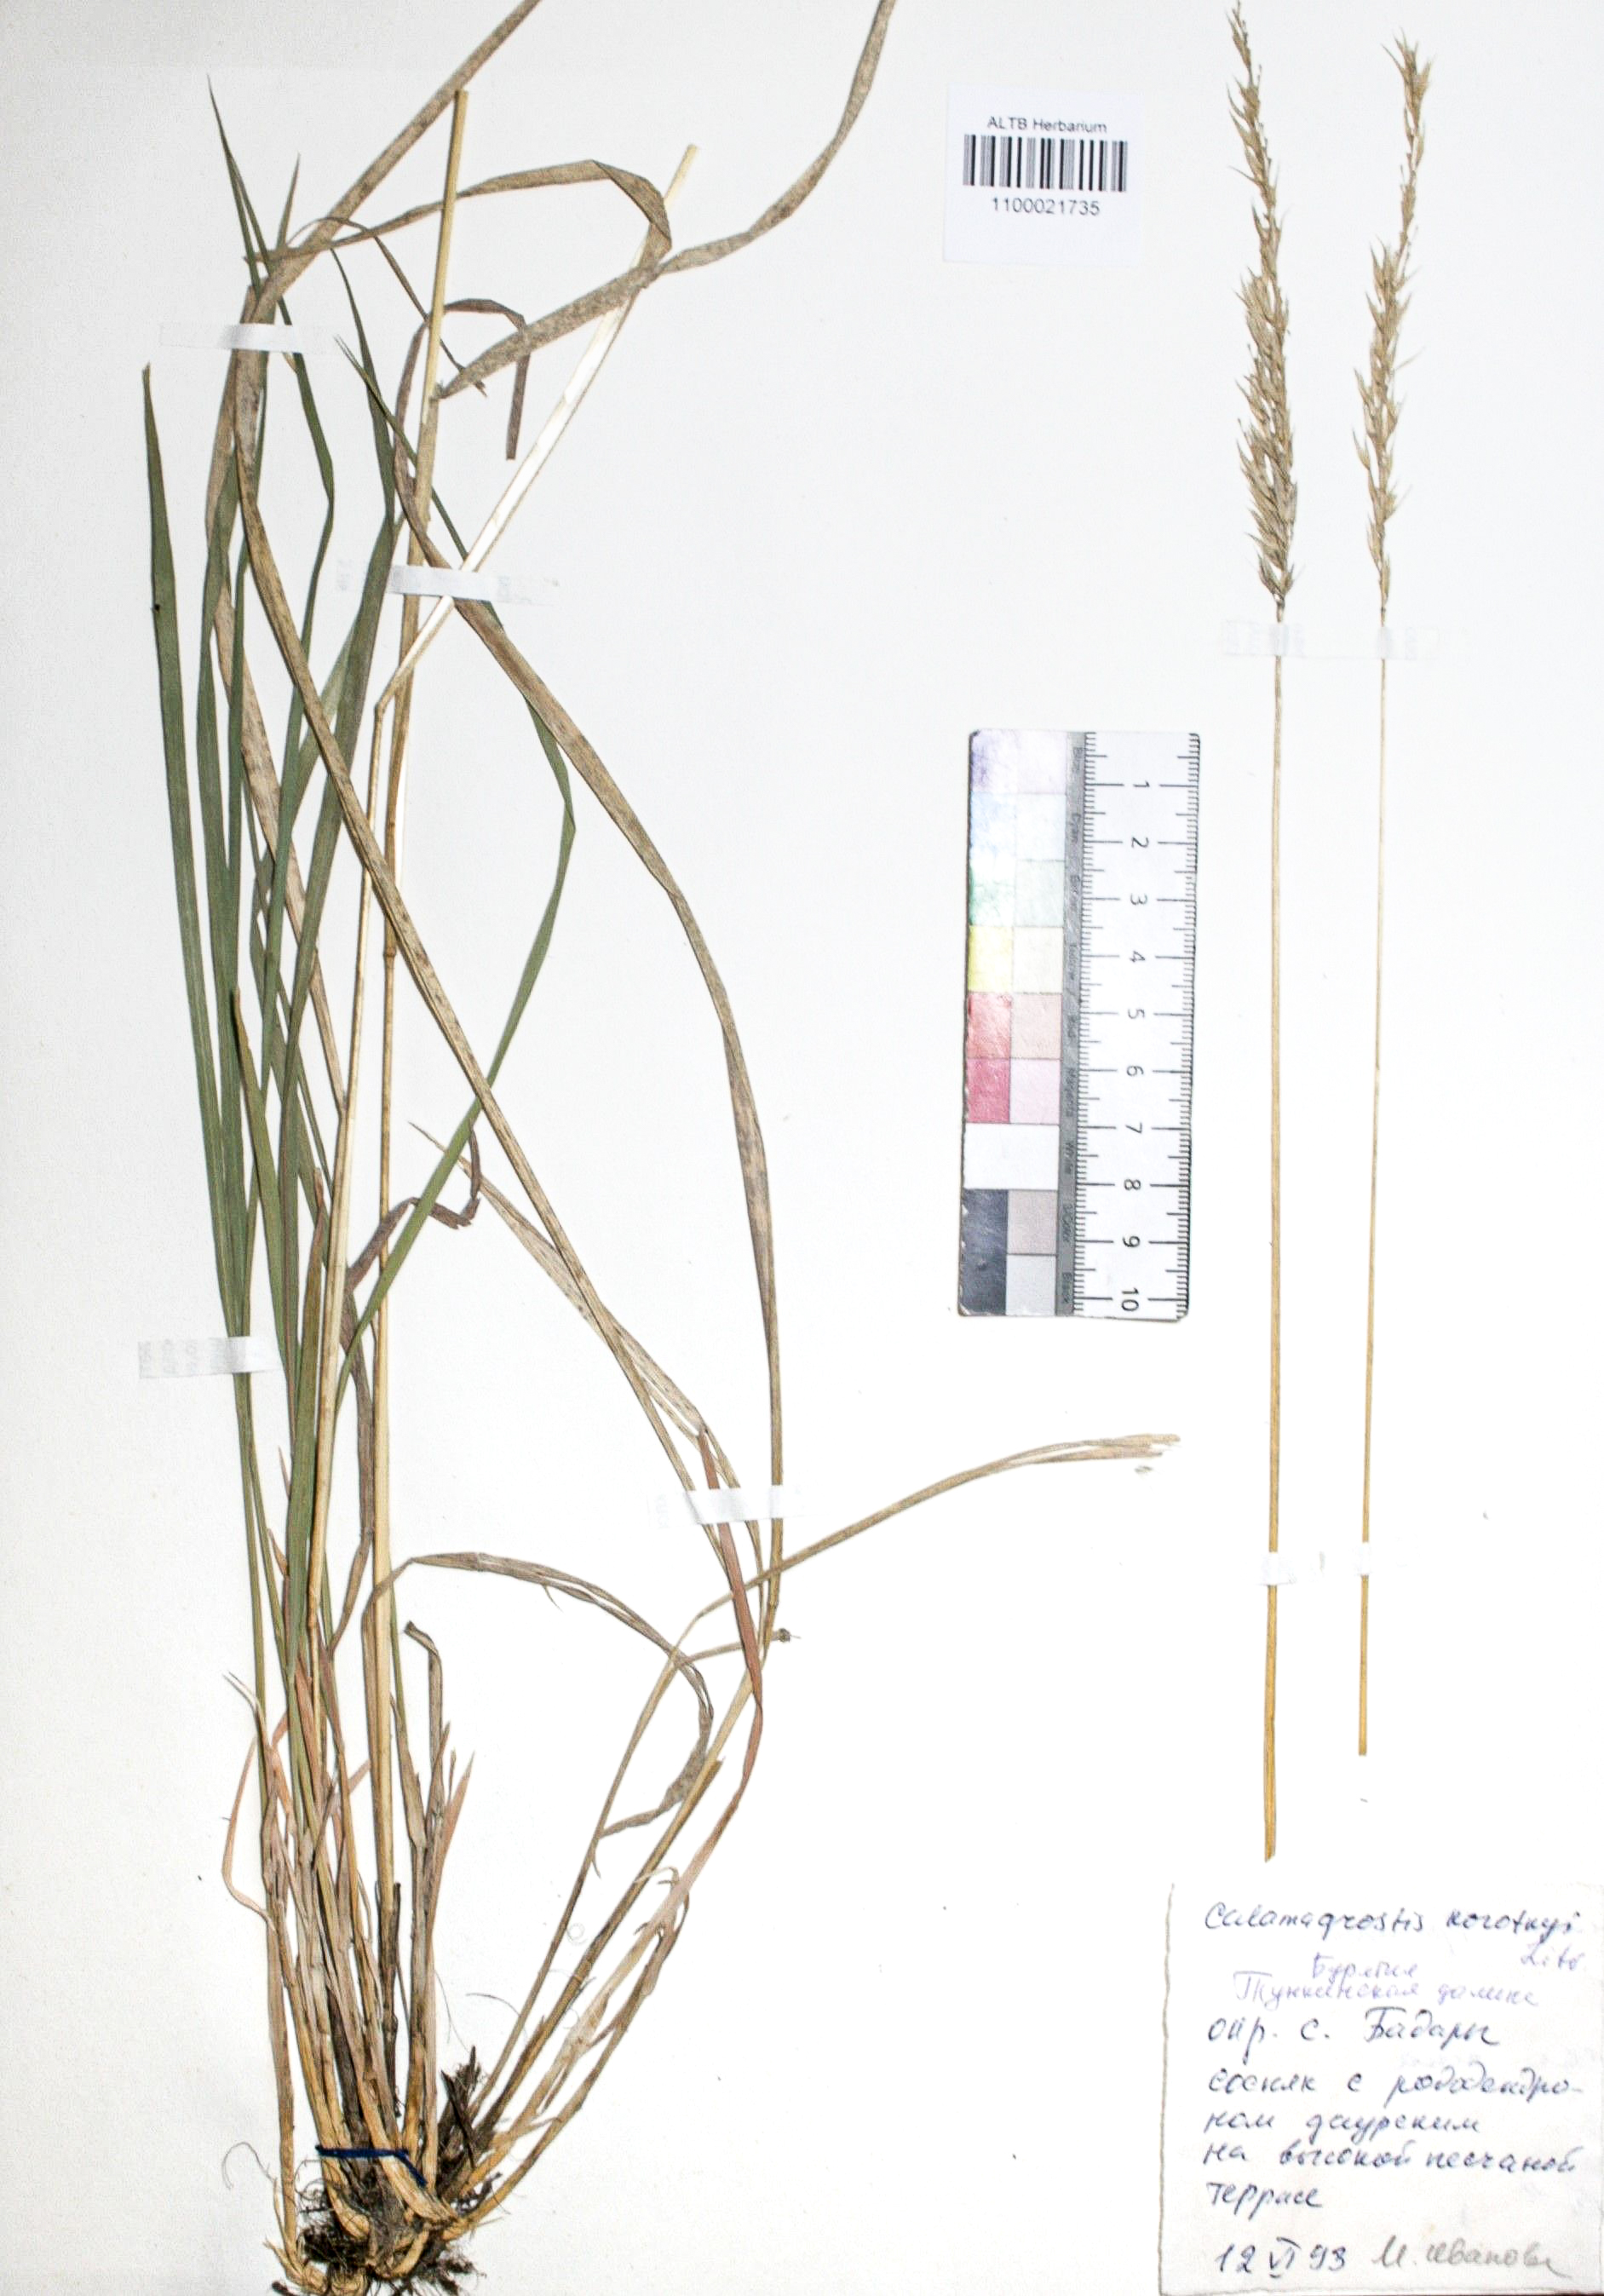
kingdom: Plantae
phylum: Tracheophyta
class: Liliopsida
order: Poales
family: Poaceae
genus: Calamagrostis
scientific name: Calamagrostis korotkyi
